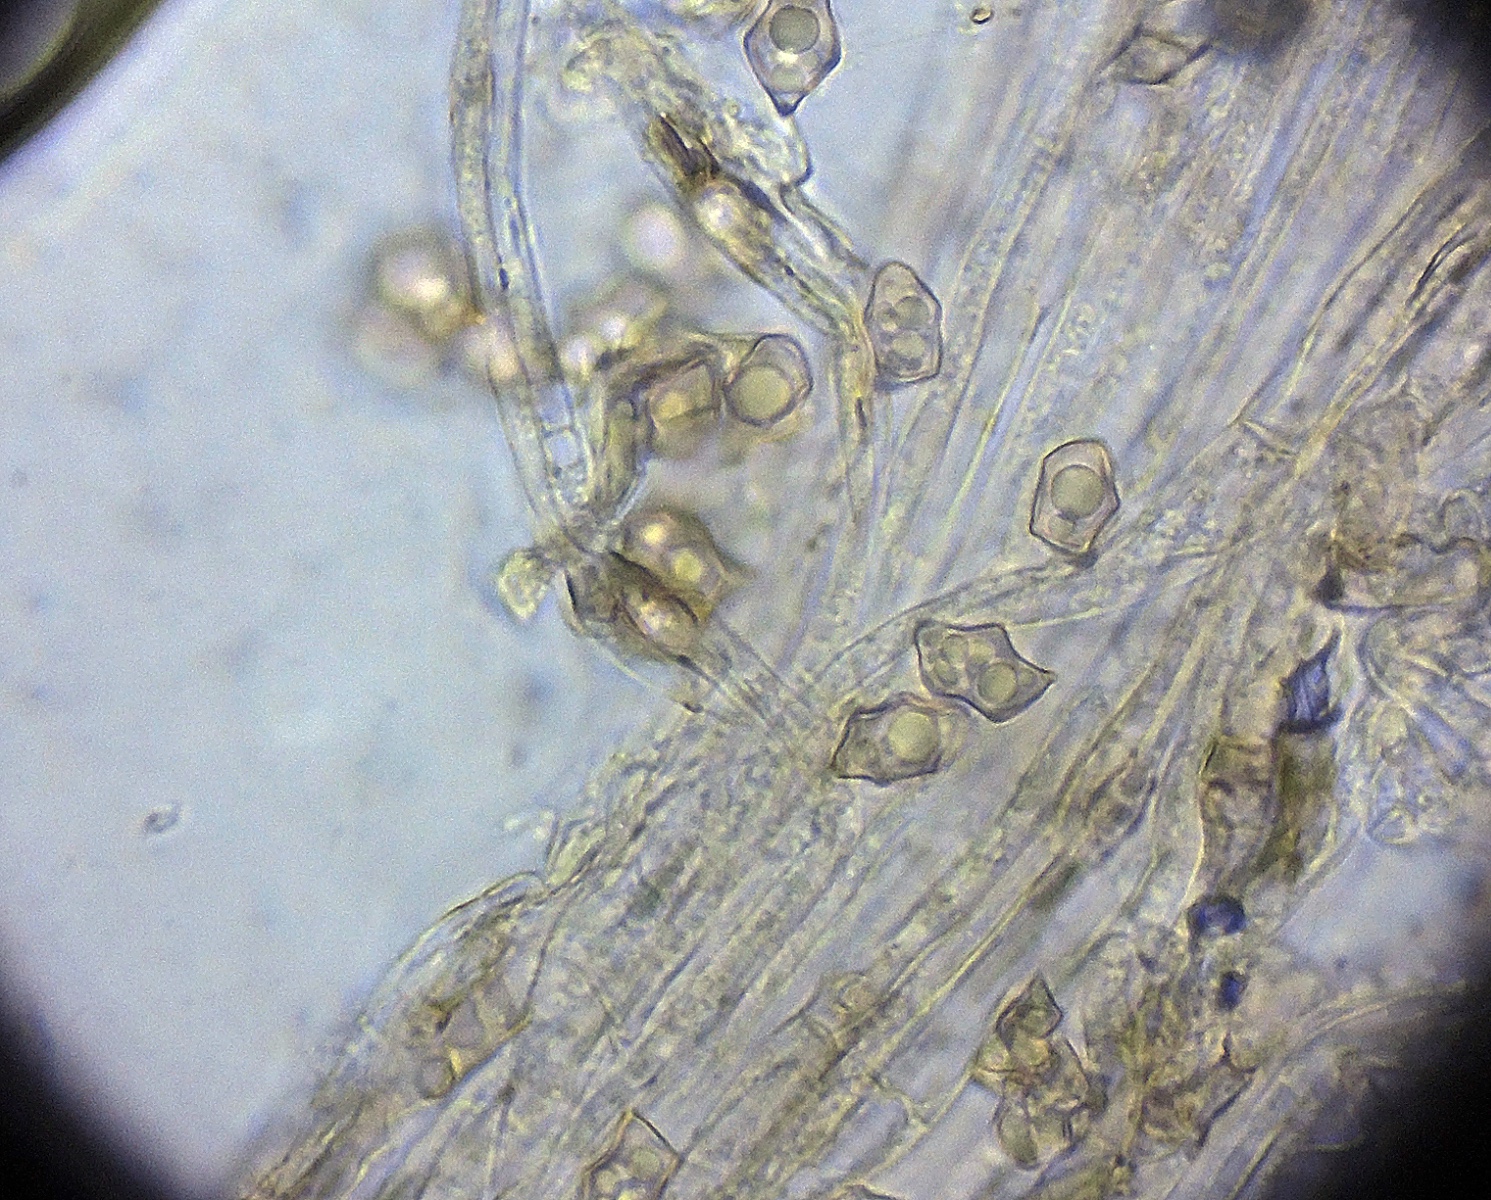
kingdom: Fungi
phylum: Basidiomycota
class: Agaricomycetes
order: Agaricales
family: Entolomataceae
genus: Entoloma
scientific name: Entoloma
